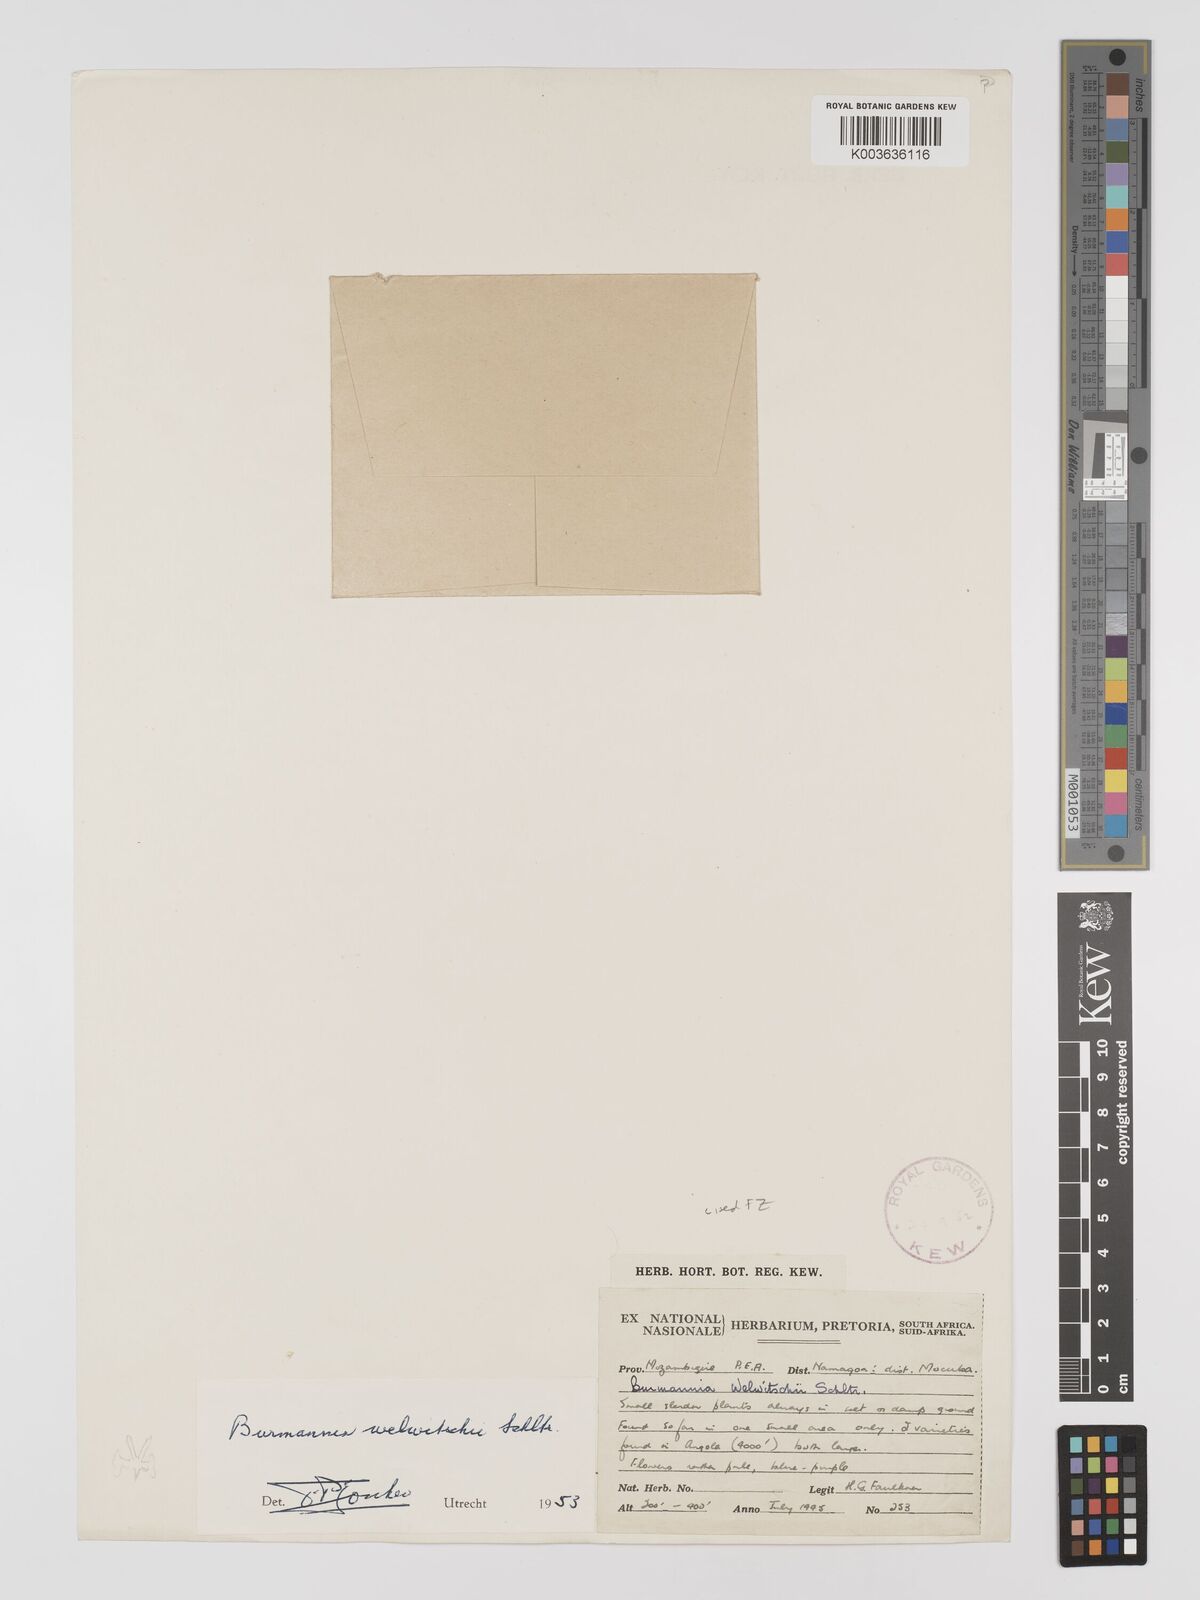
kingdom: Plantae
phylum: Tracheophyta
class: Liliopsida
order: Dioscoreales
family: Burmanniaceae
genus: Burmannia
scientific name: Burmannia madagascariensis
